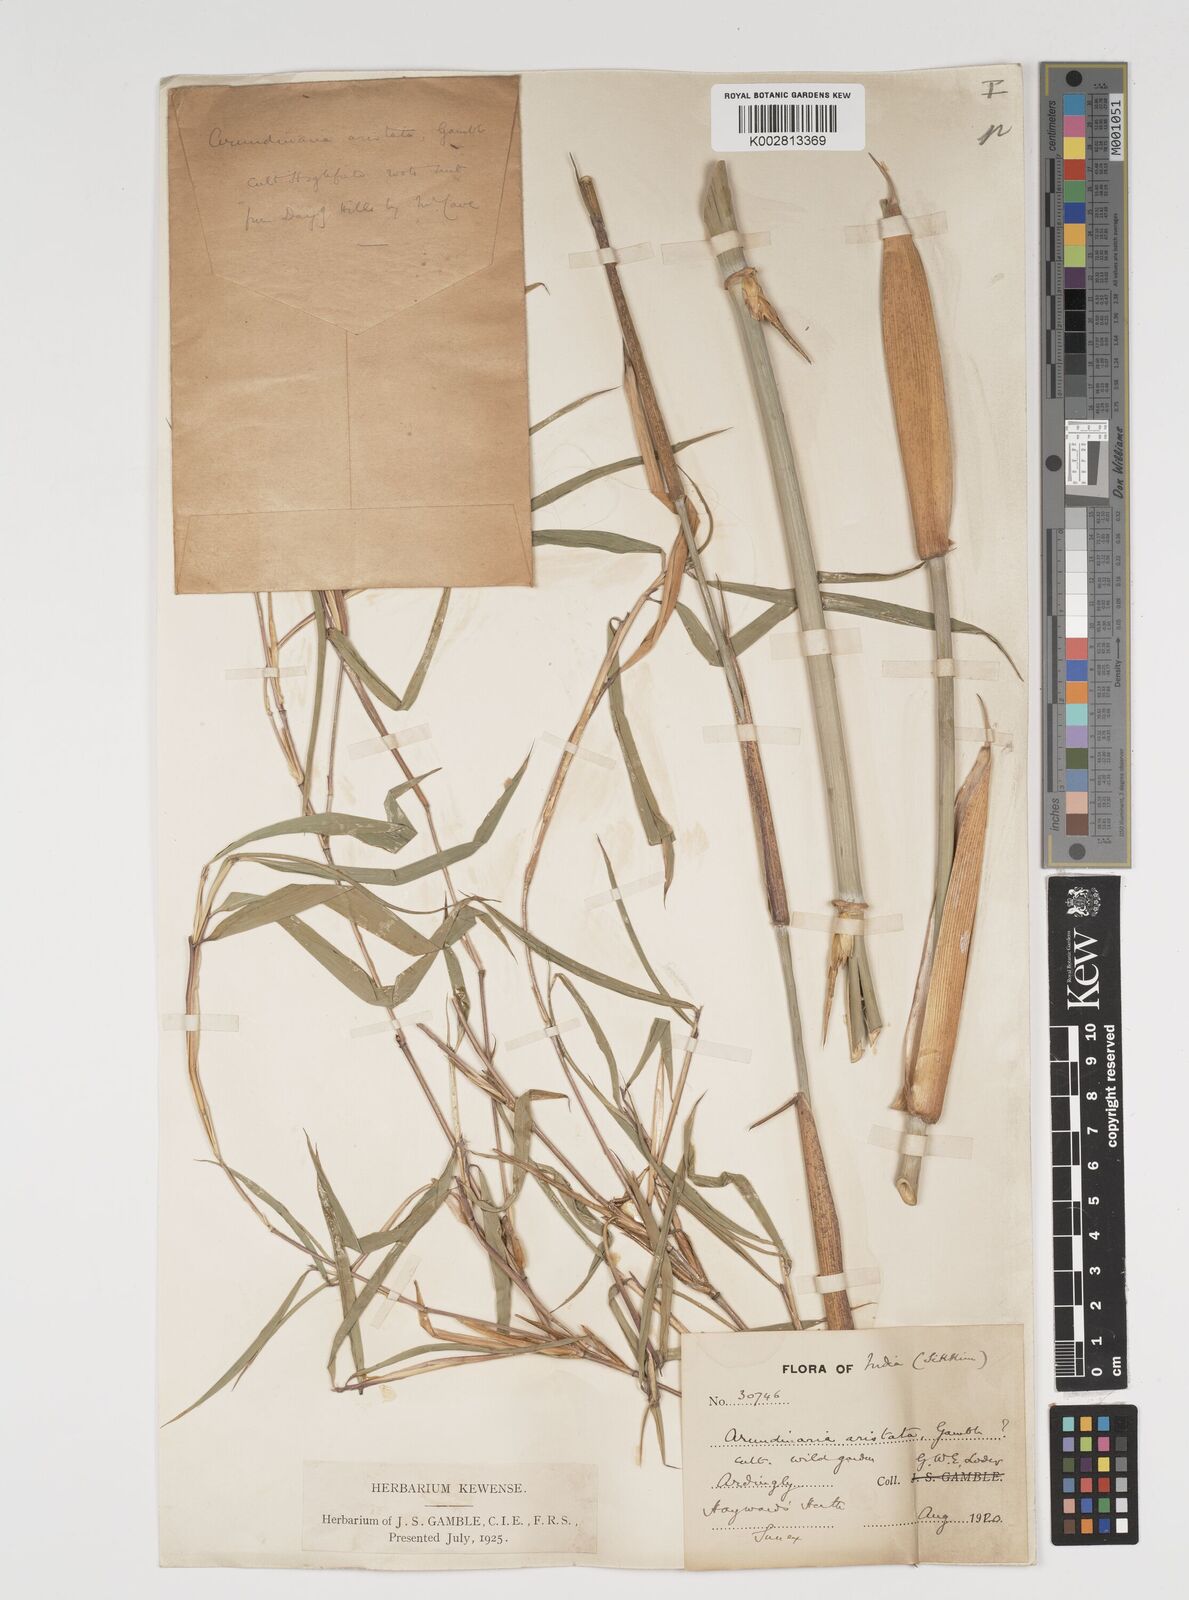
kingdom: Plantae
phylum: Tracheophyta
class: Liliopsida
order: Poales
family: Poaceae
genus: Thamnocalamus
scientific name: Thamnocalamus spathiflorus
